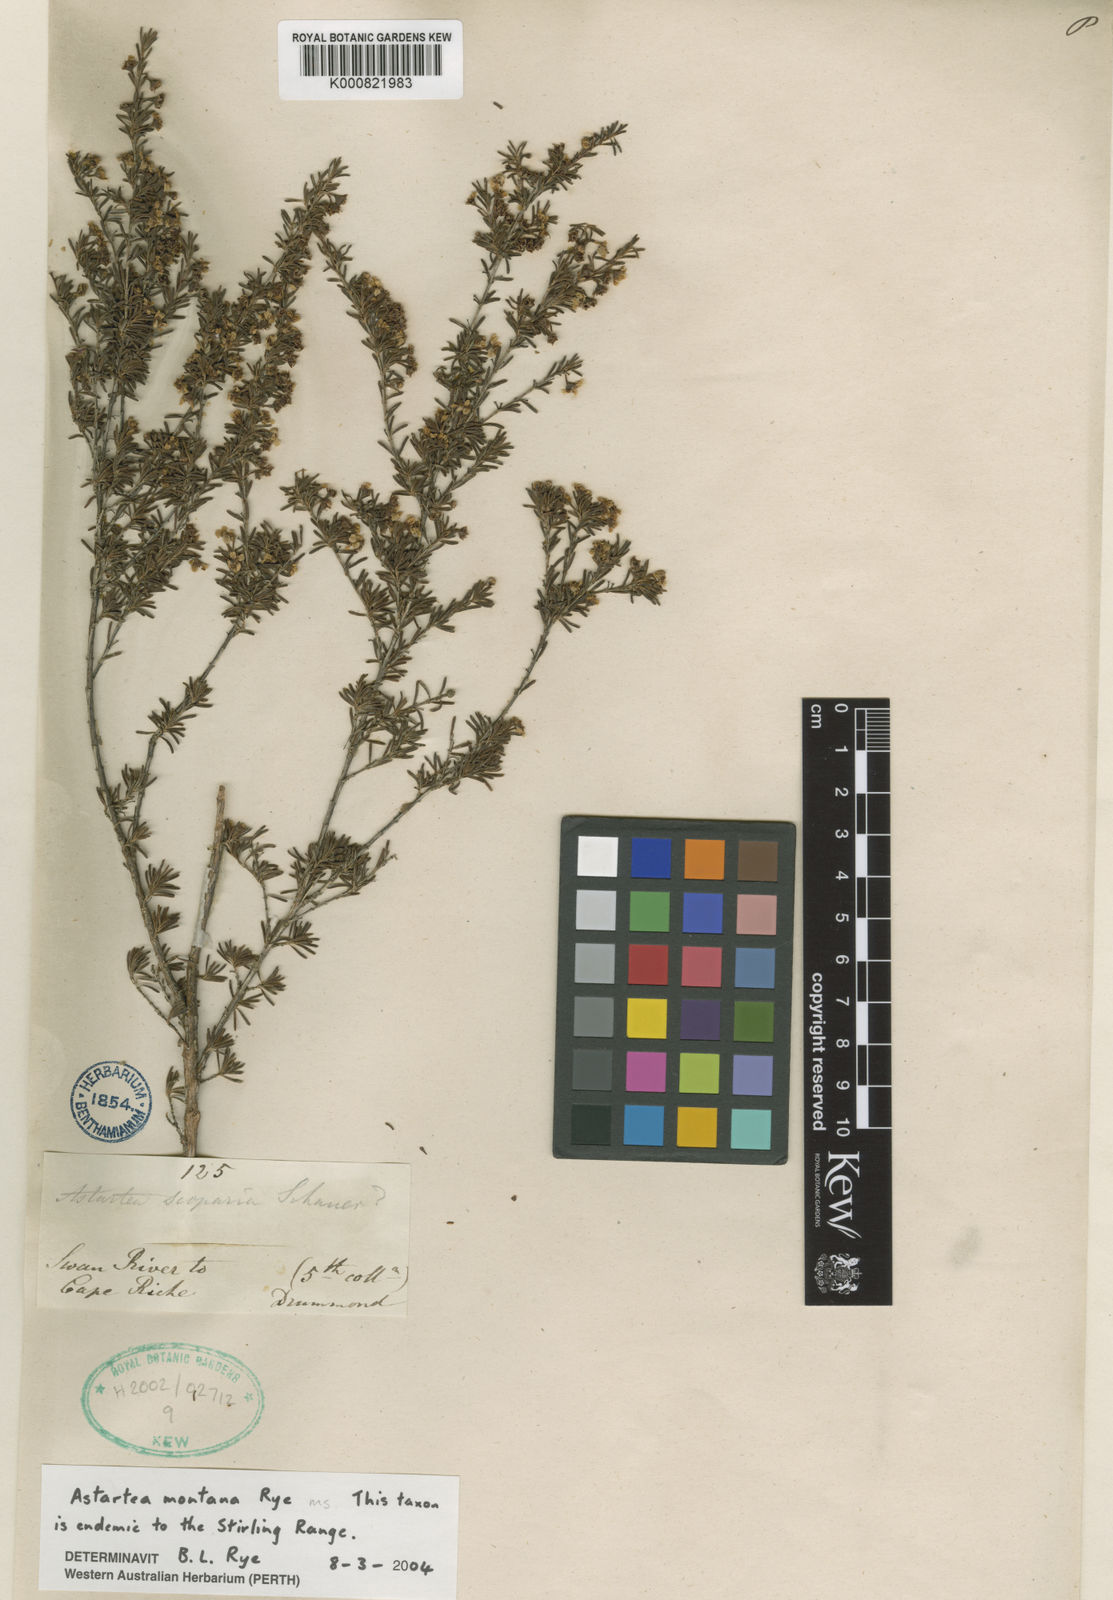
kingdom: Plantae
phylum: Tracheophyta
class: Magnoliopsida
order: Myrtales
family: Myrtaceae
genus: Astartea
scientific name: Astartea montana
